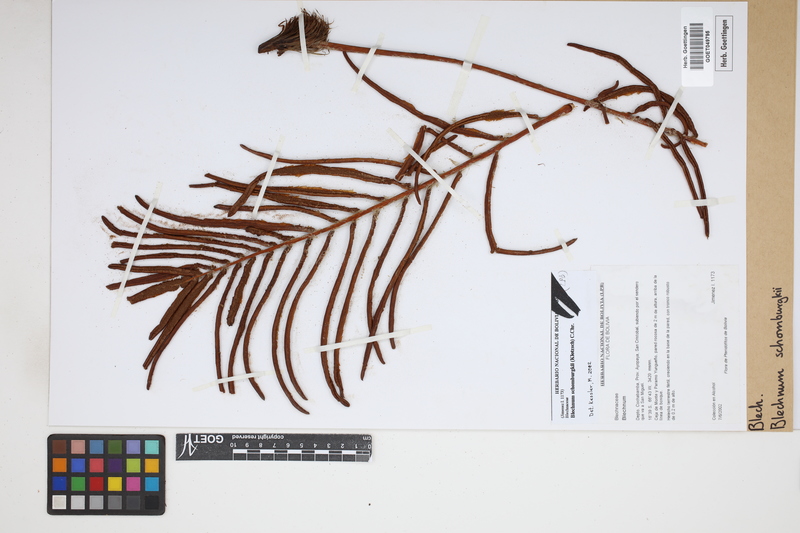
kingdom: Plantae
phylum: Tracheophyta
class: Polypodiopsida
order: Polypodiales
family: Blechnaceae
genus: Lomariocycas
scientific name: Lomariocycas schomburgkii
